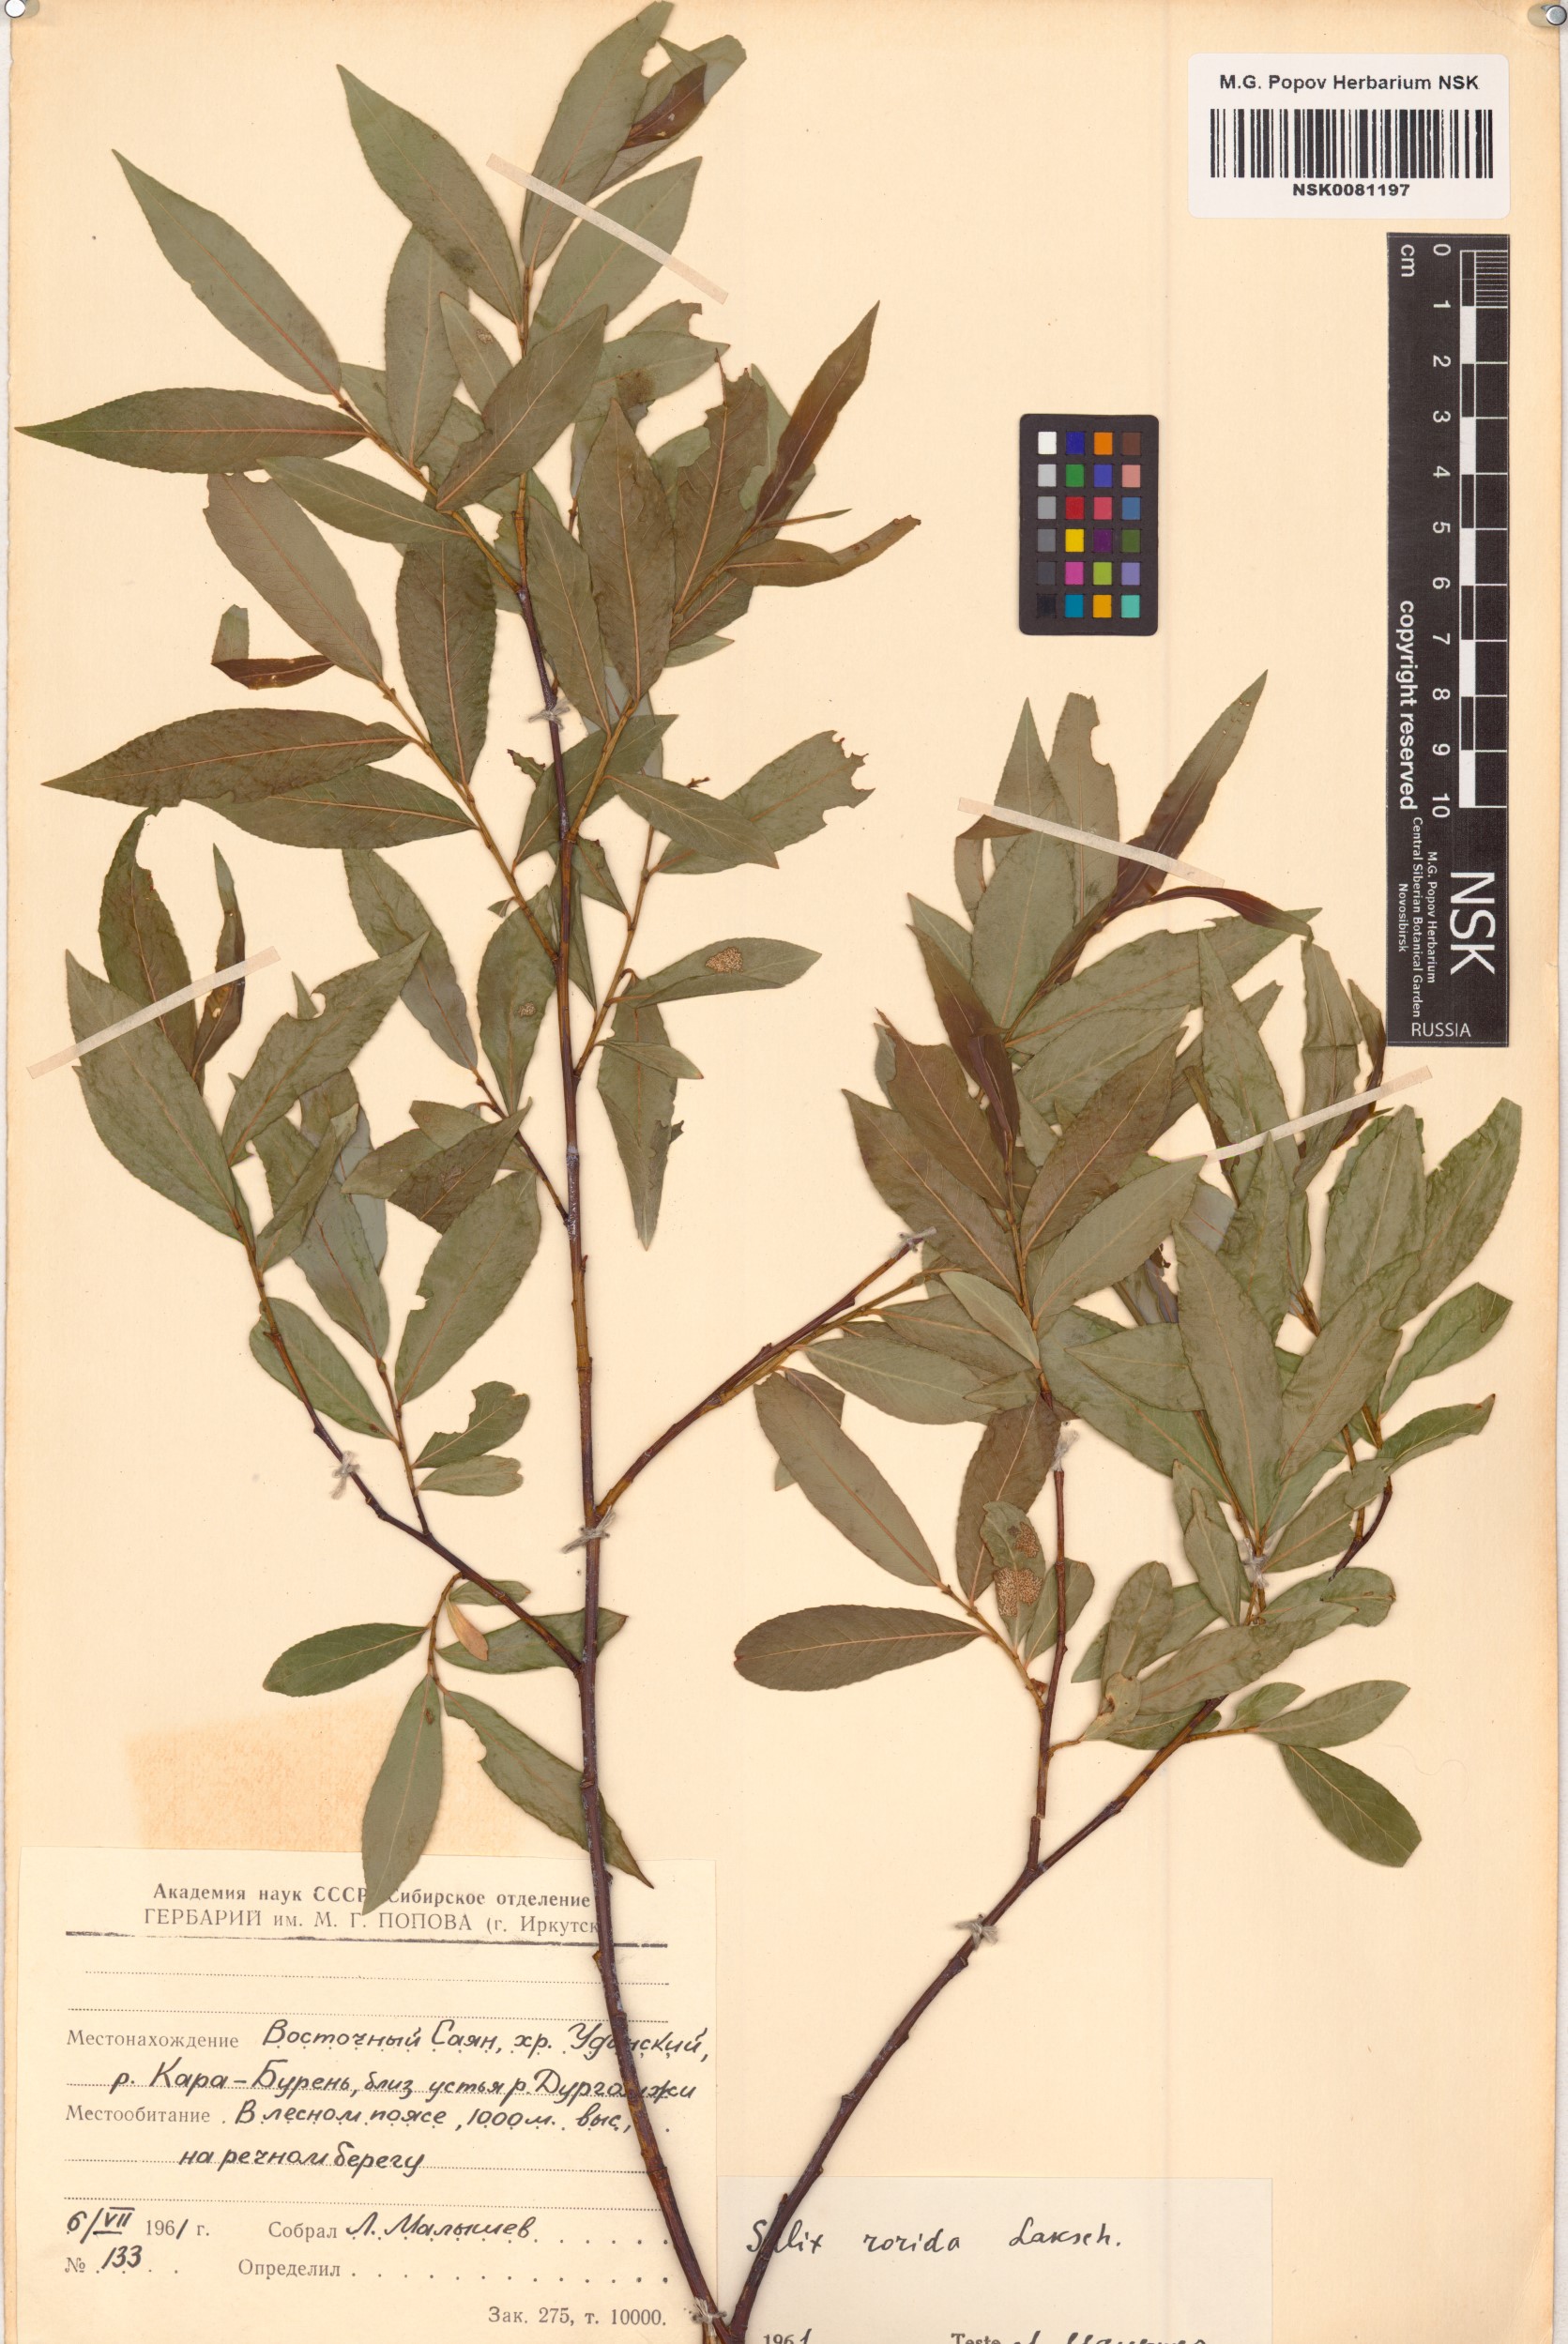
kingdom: Plantae
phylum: Tracheophyta
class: Magnoliopsida
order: Malpighiales
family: Salicaceae
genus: Salix
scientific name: Salix rorida
